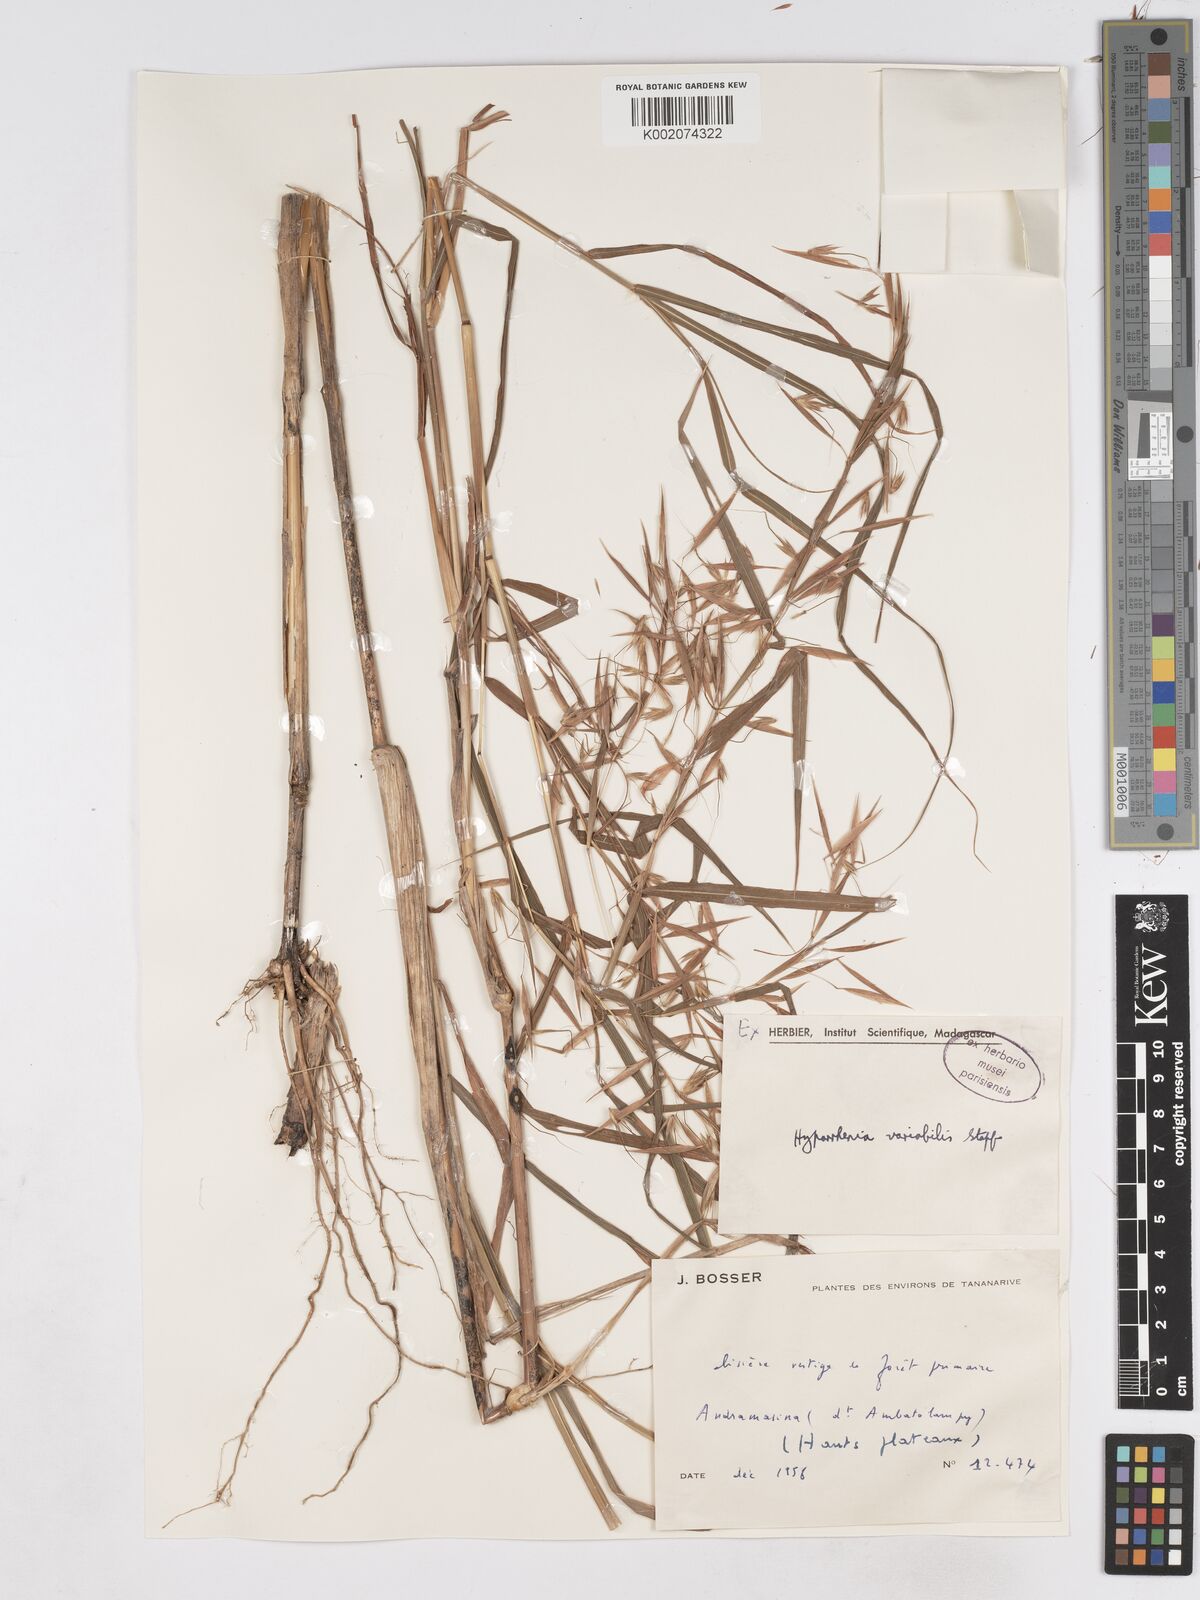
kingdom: Plantae
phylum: Tracheophyta
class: Liliopsida
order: Poales
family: Poaceae
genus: Hyparrhenia
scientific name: Hyparrhenia variabilis
